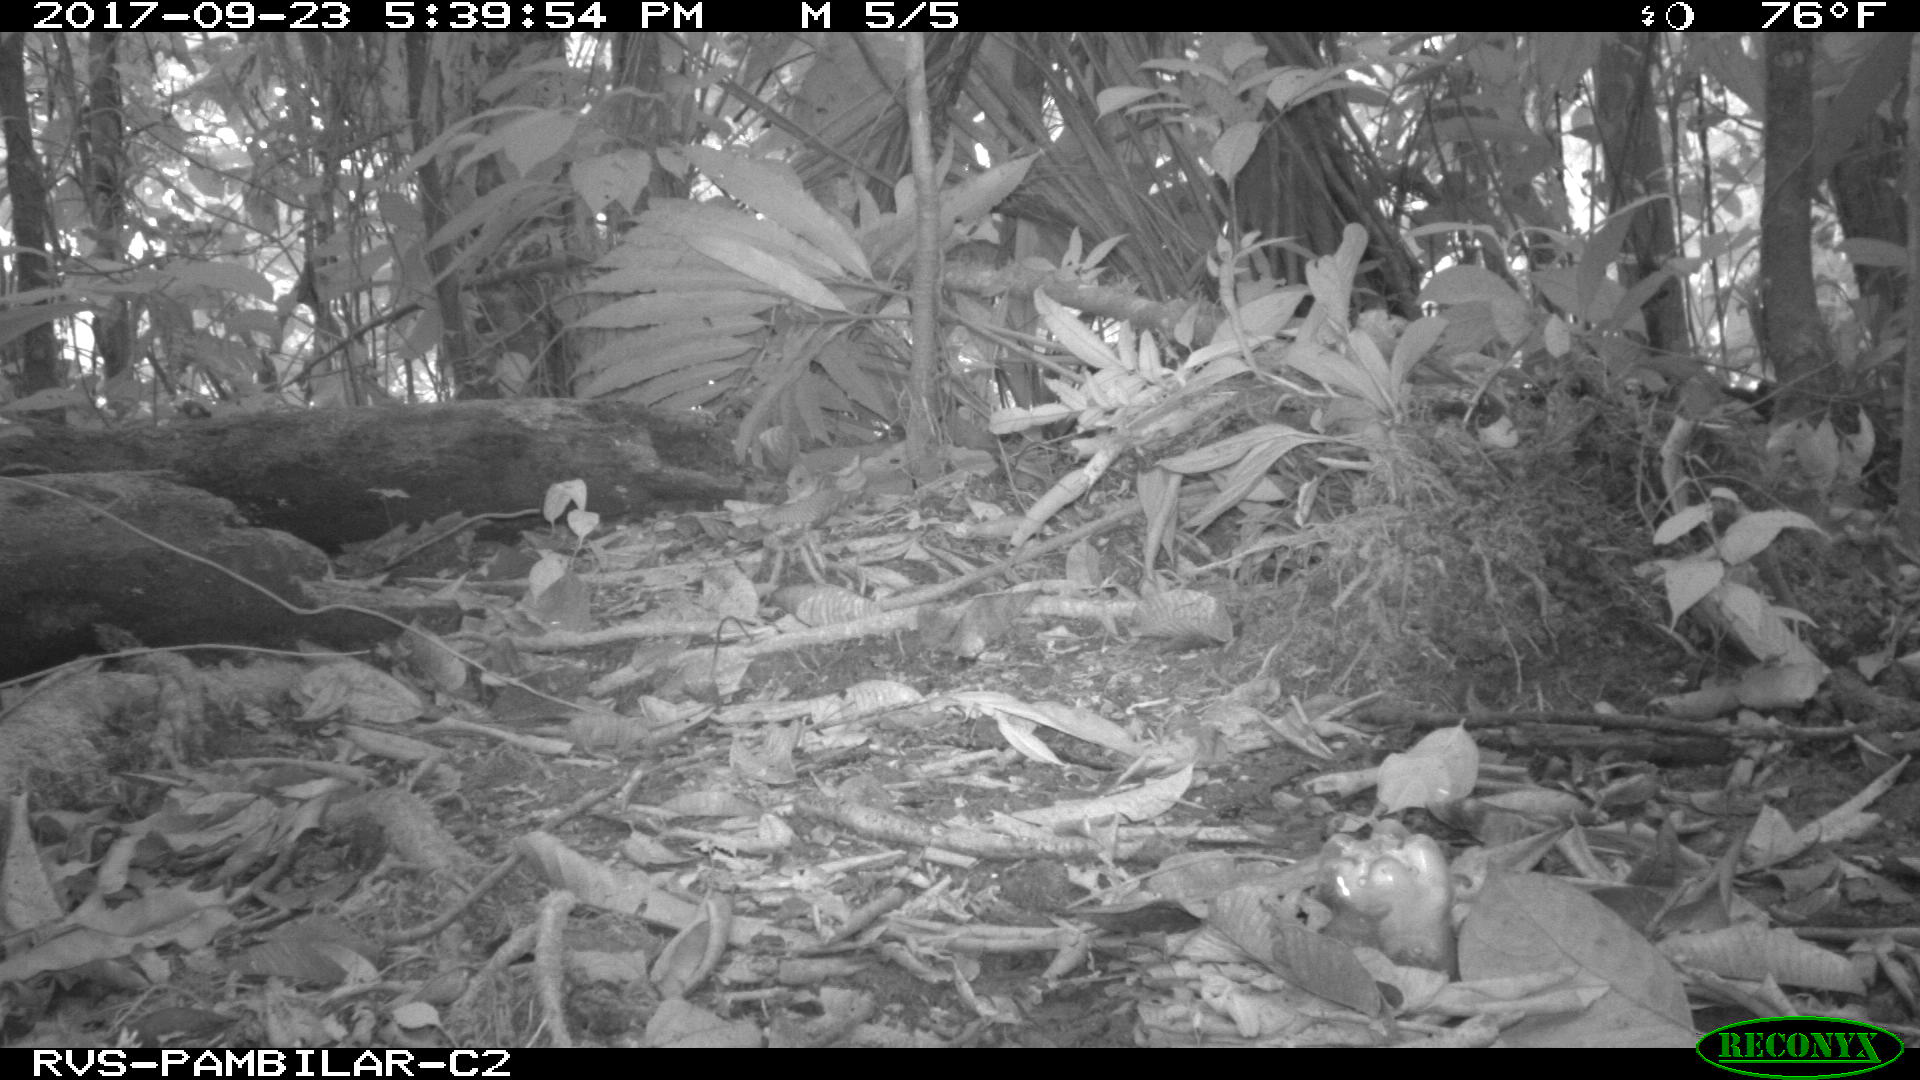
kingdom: Animalia
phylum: Chordata
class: Mammalia
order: Rodentia
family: Sciuridae
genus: Sciurus
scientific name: Sciurus granatensis
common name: Red-tailed squirrel
